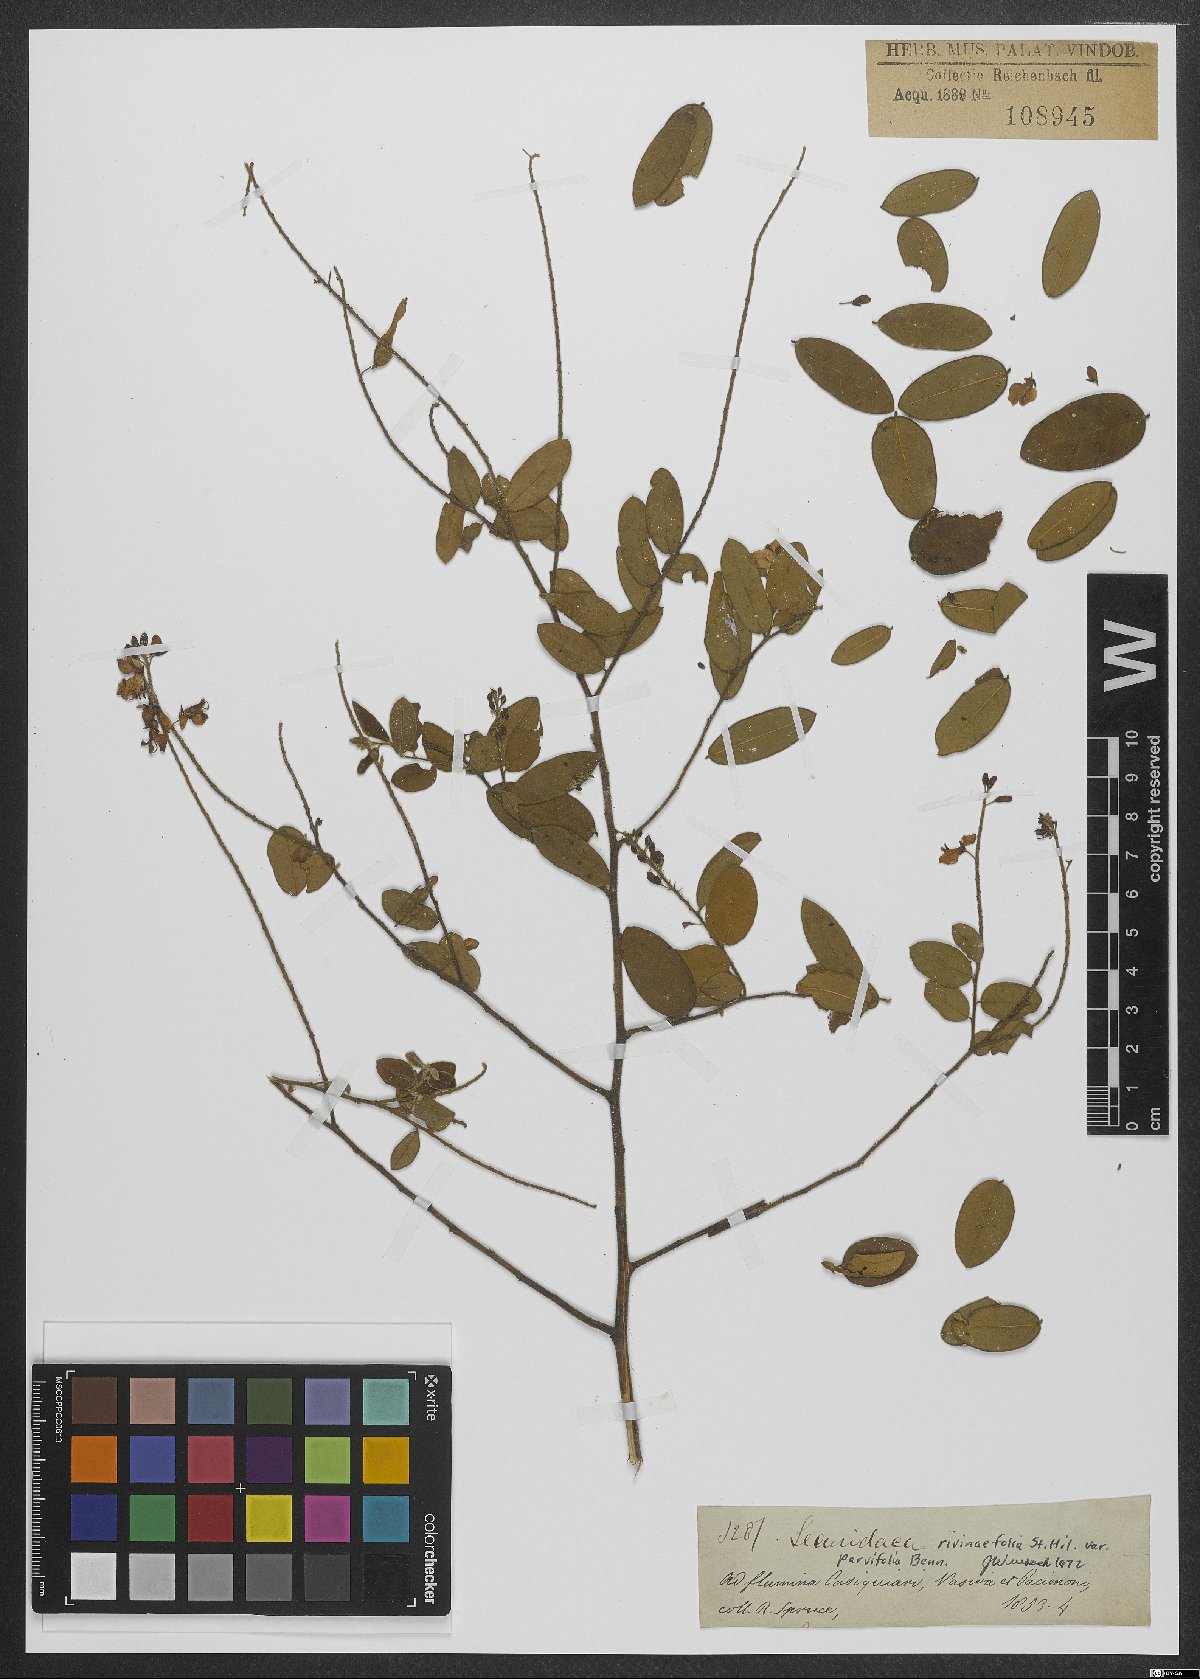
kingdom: Plantae
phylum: Tracheophyta
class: Magnoliopsida
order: Fabales
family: Polygalaceae
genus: Securidaca
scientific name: Securidaca rivinifolia
